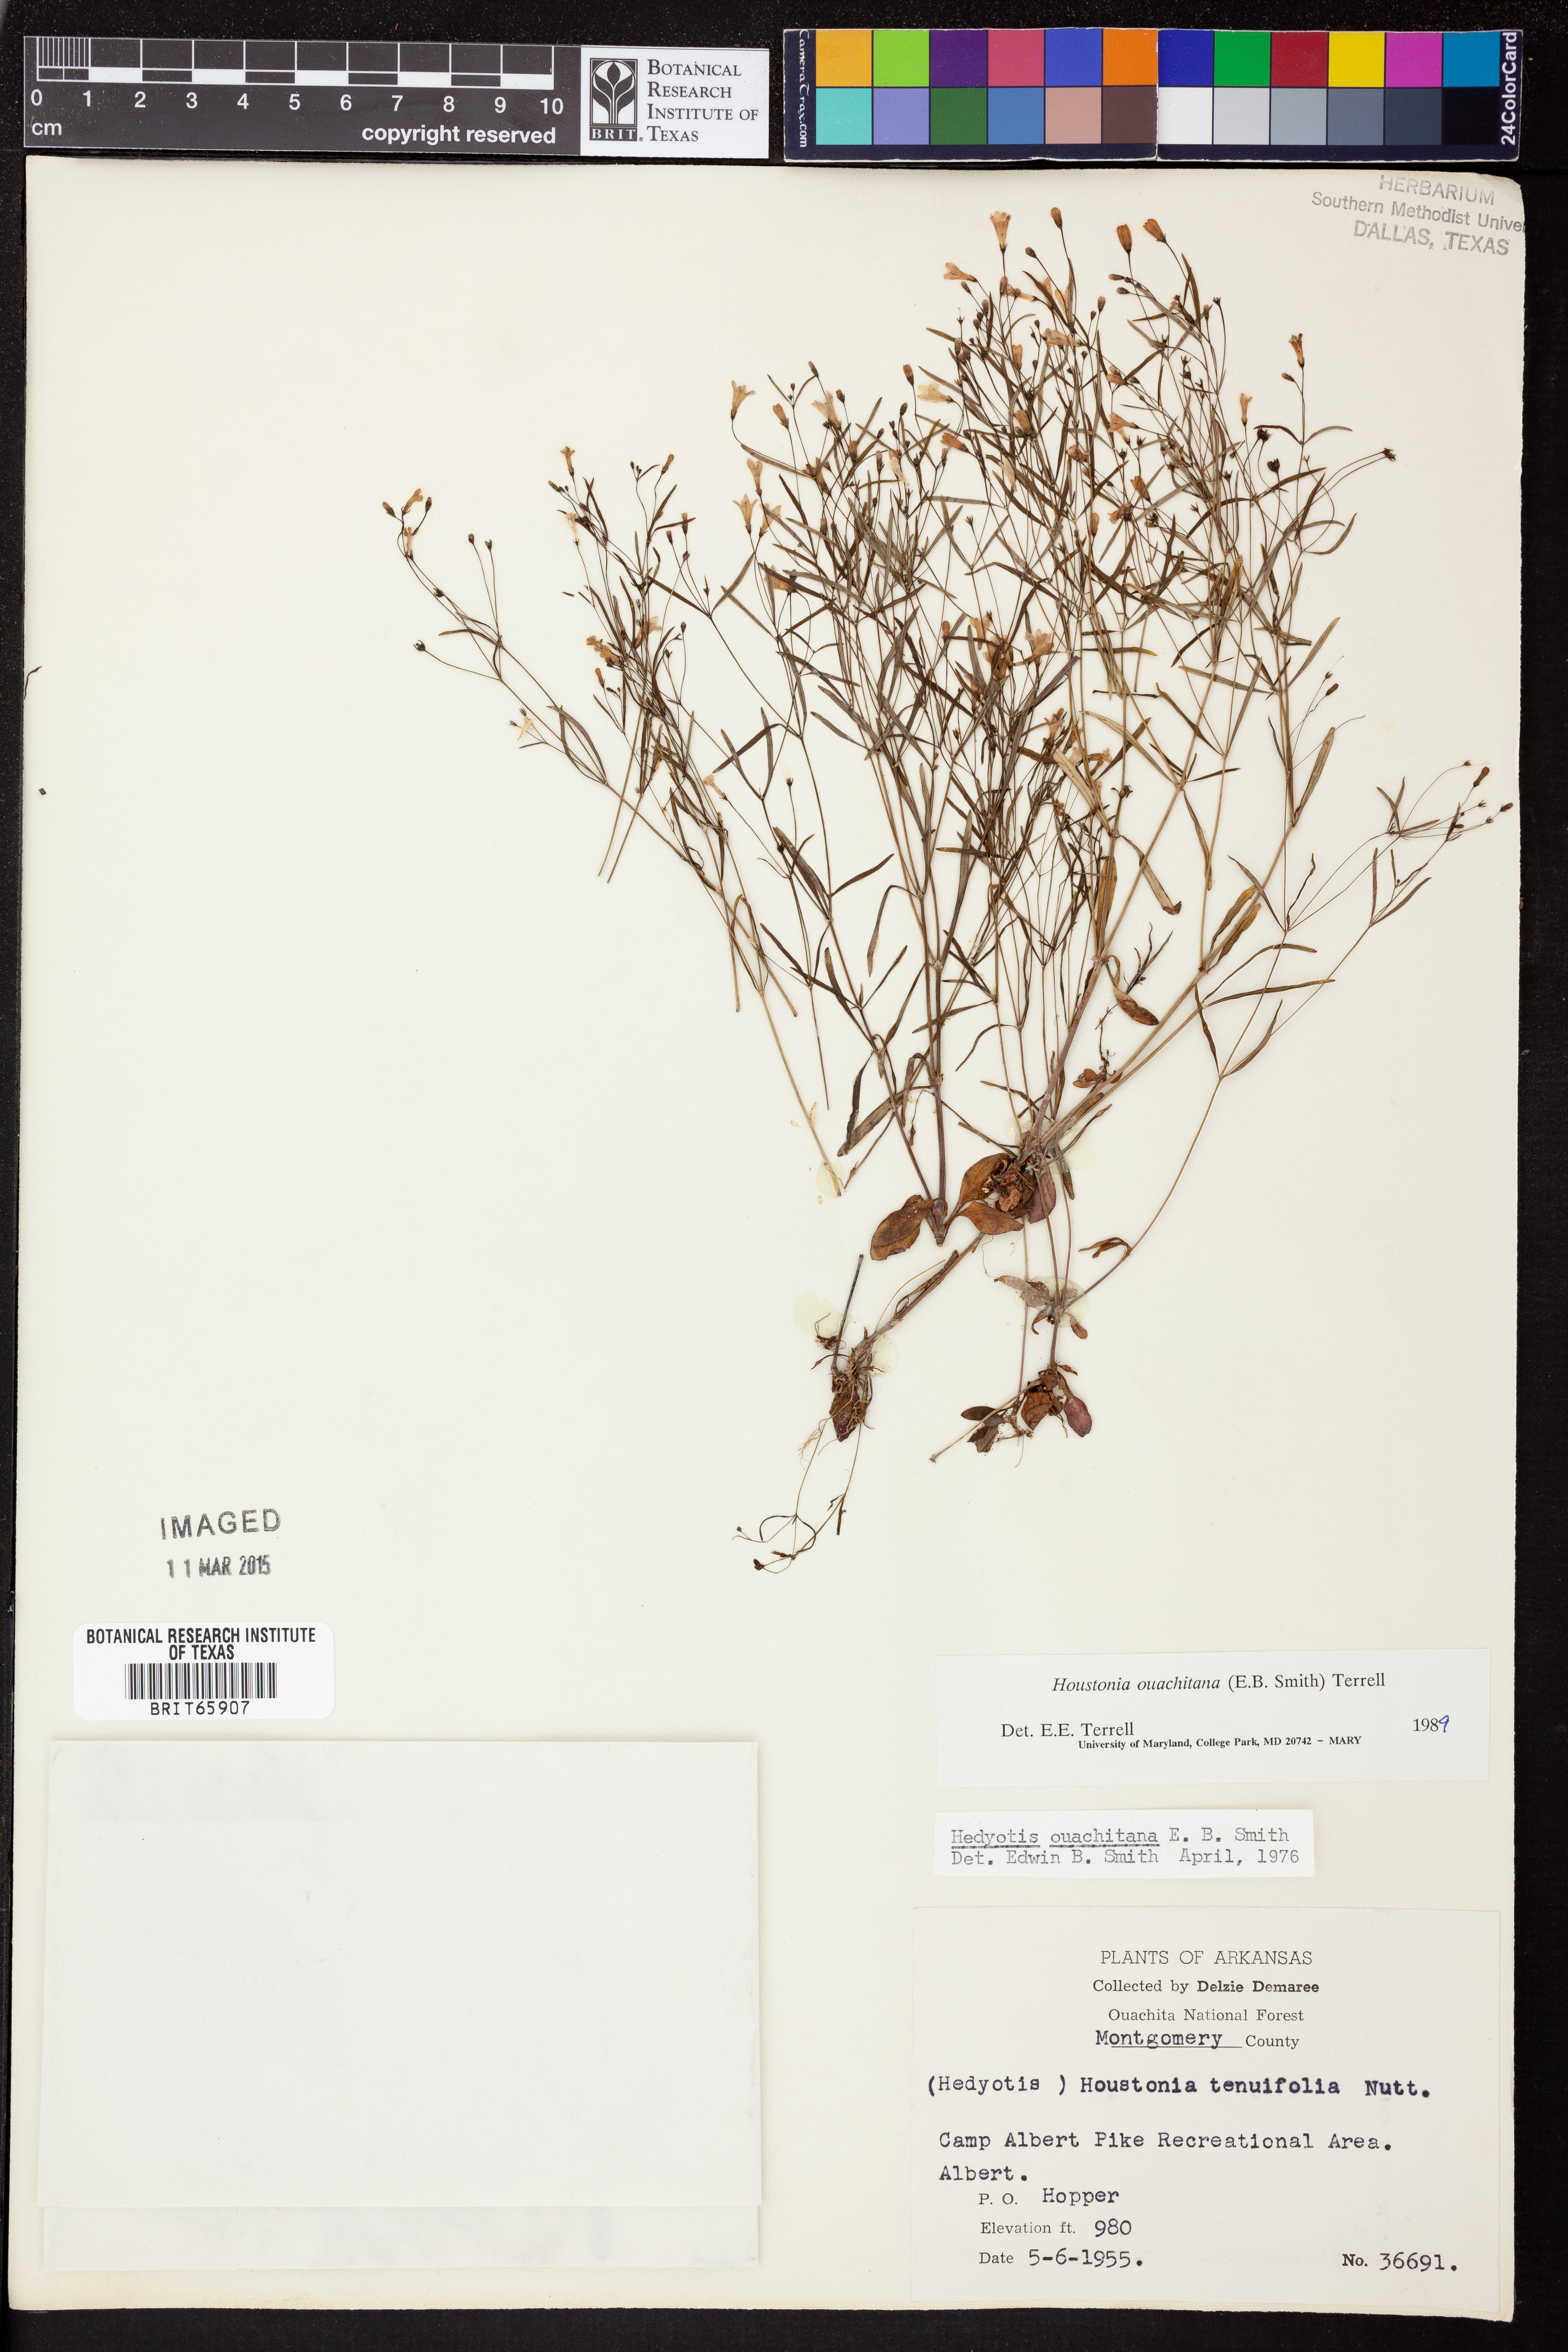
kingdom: Plantae
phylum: Tracheophyta
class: Magnoliopsida
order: Gentianales
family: Rubiaceae
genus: Houstonia
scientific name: Houstonia ouachitana
